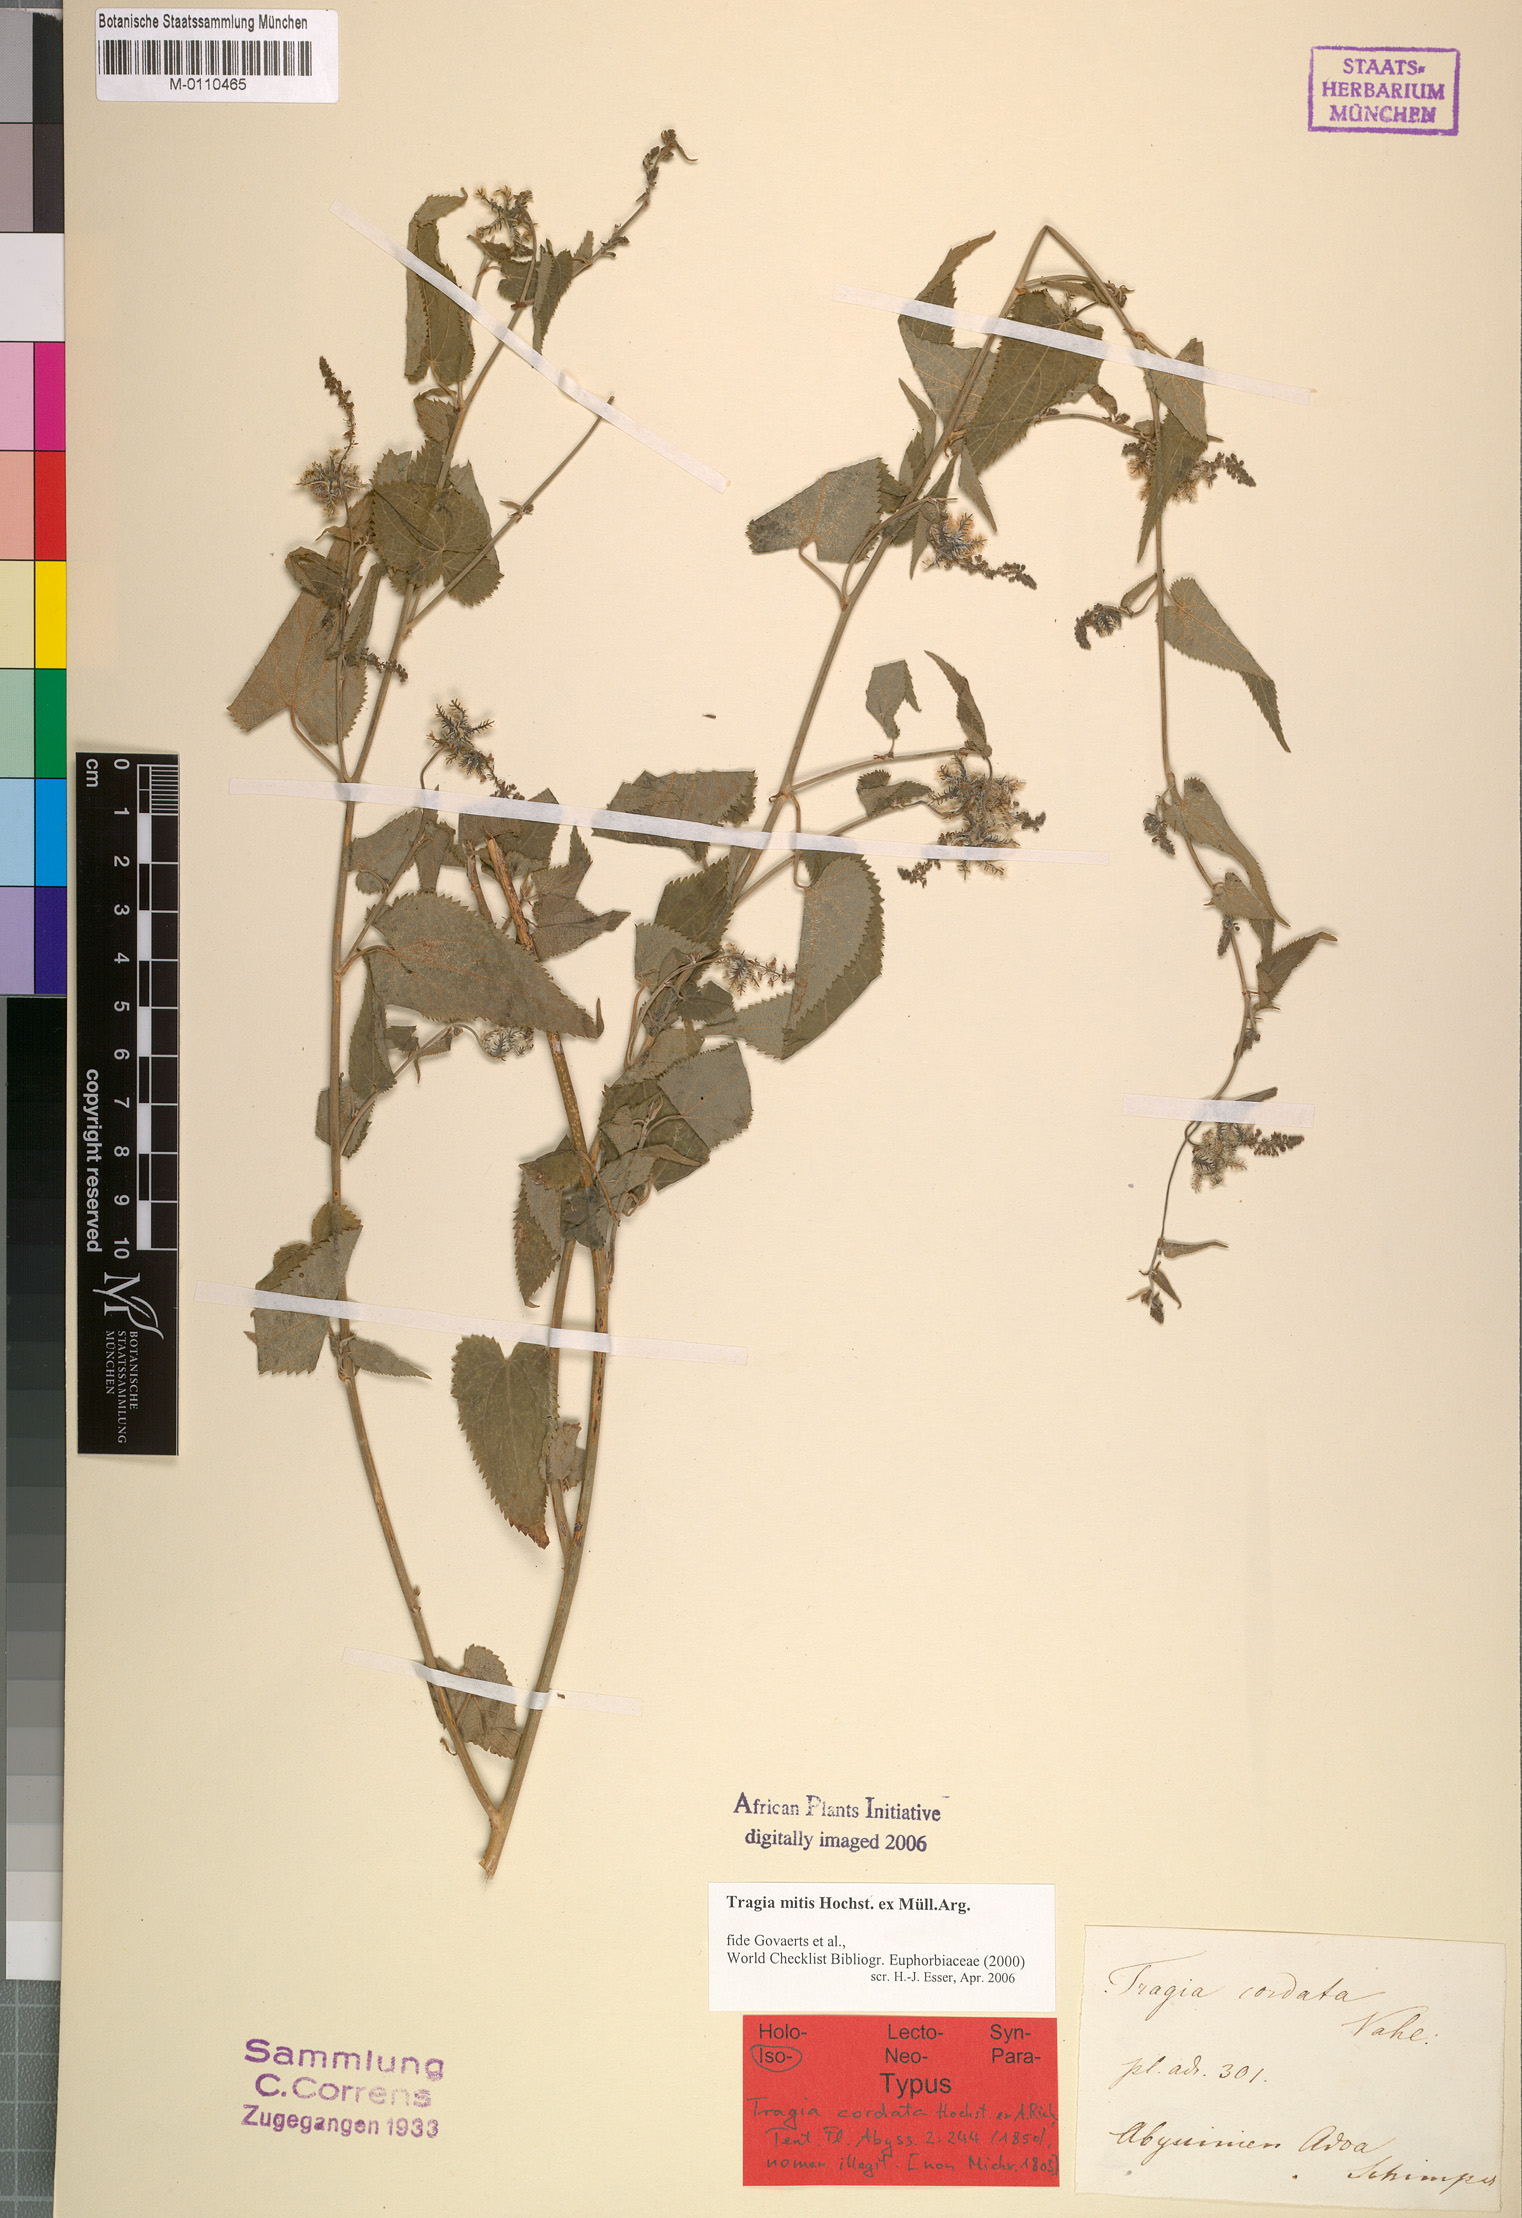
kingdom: Plantae
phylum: Tracheophyta
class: Magnoliopsida
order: Malpighiales
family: Euphorbiaceae
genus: Tragia
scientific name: Tragia mitis
